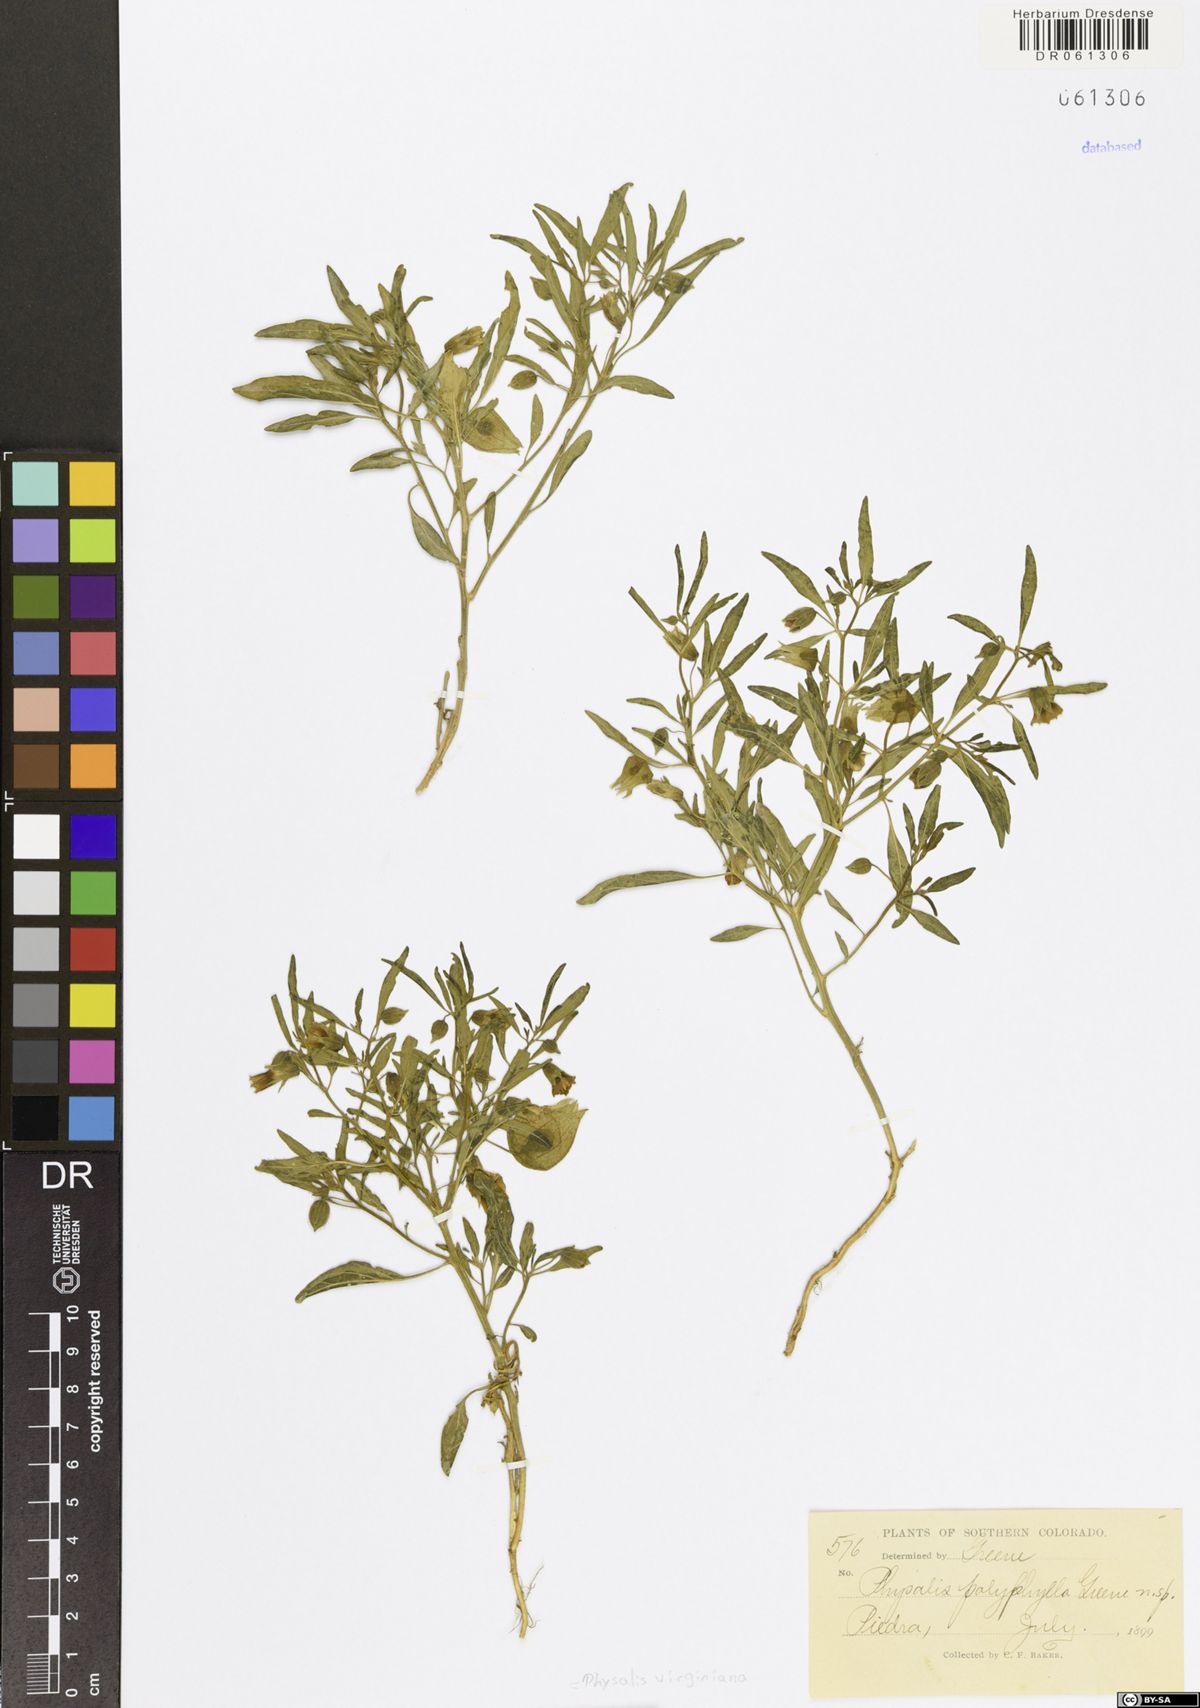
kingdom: Plantae
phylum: Tracheophyta
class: Magnoliopsida
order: Solanales
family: Solanaceae
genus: Physalis
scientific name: Physalis virginiana
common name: Virginia ground-cherry
